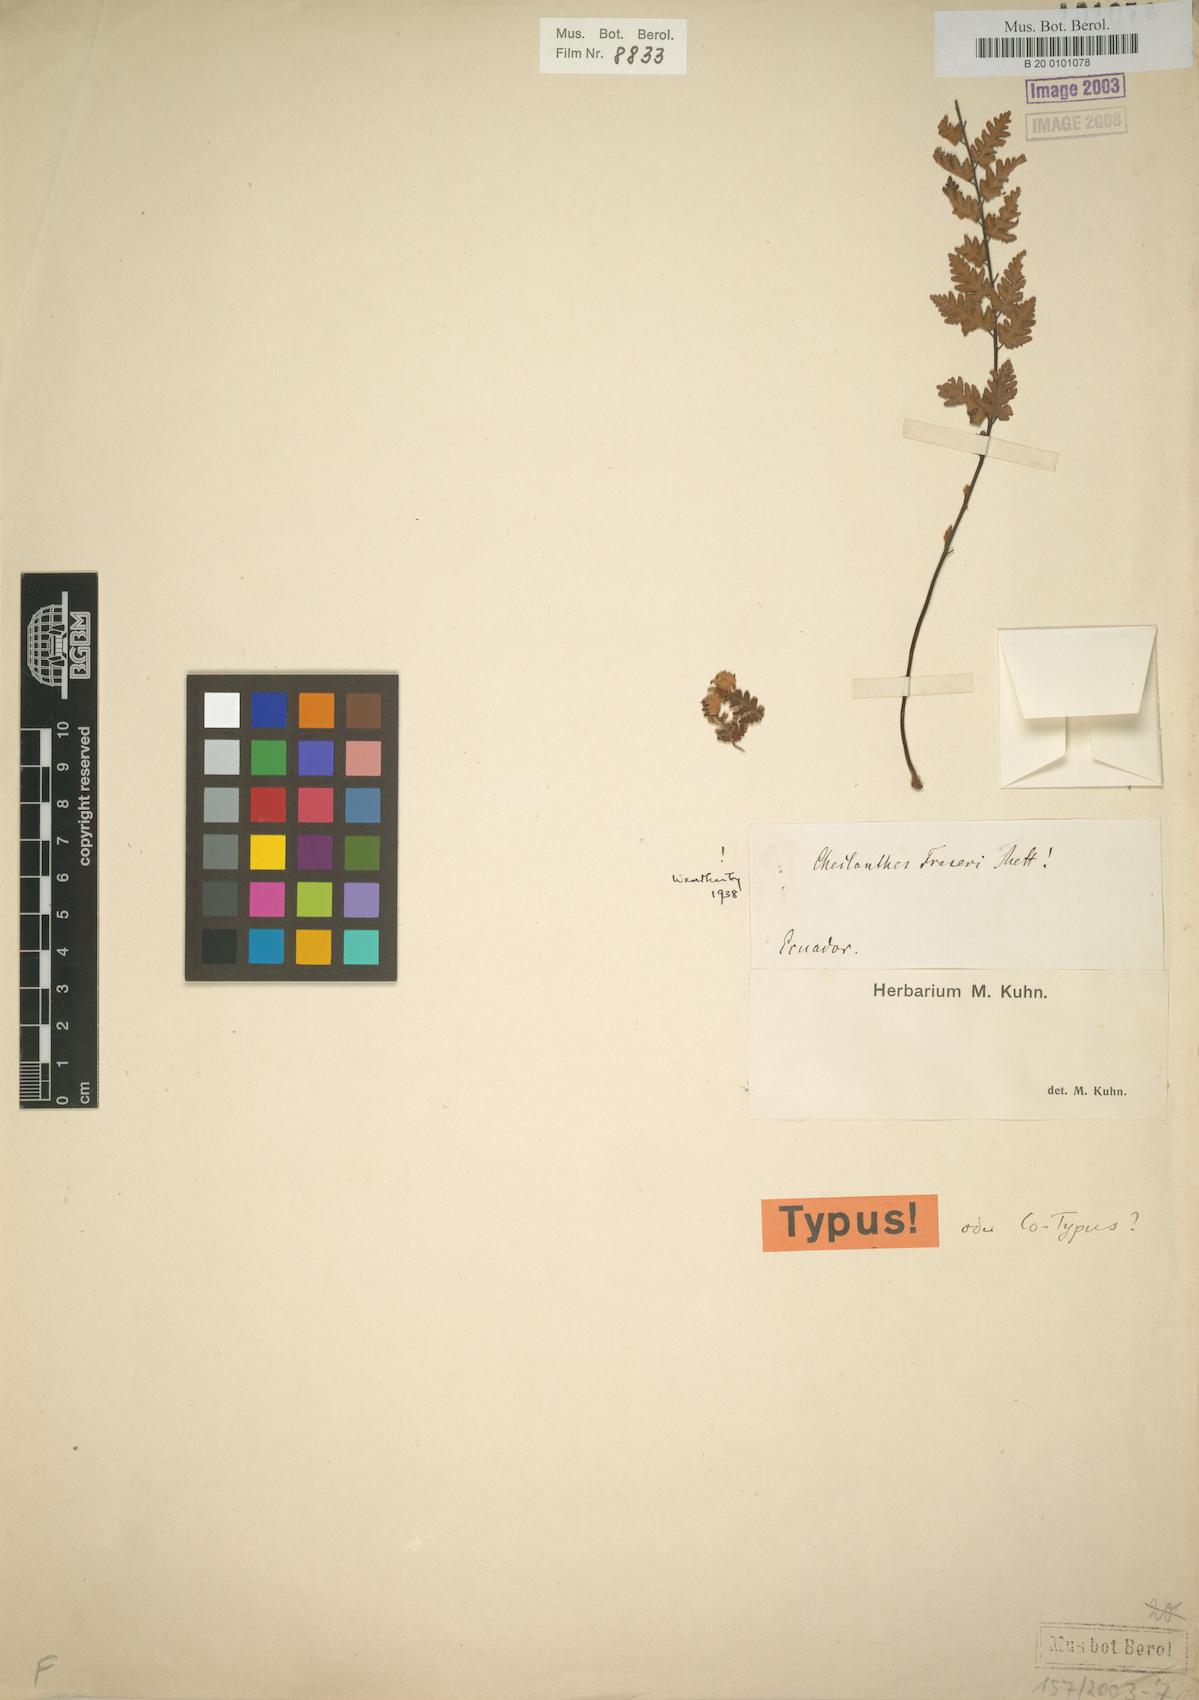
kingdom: Plantae
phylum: Tracheophyta
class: Polypodiopsida
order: Polypodiales
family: Pteridaceae
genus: Cheilanthes
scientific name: Cheilanthes fraseri
